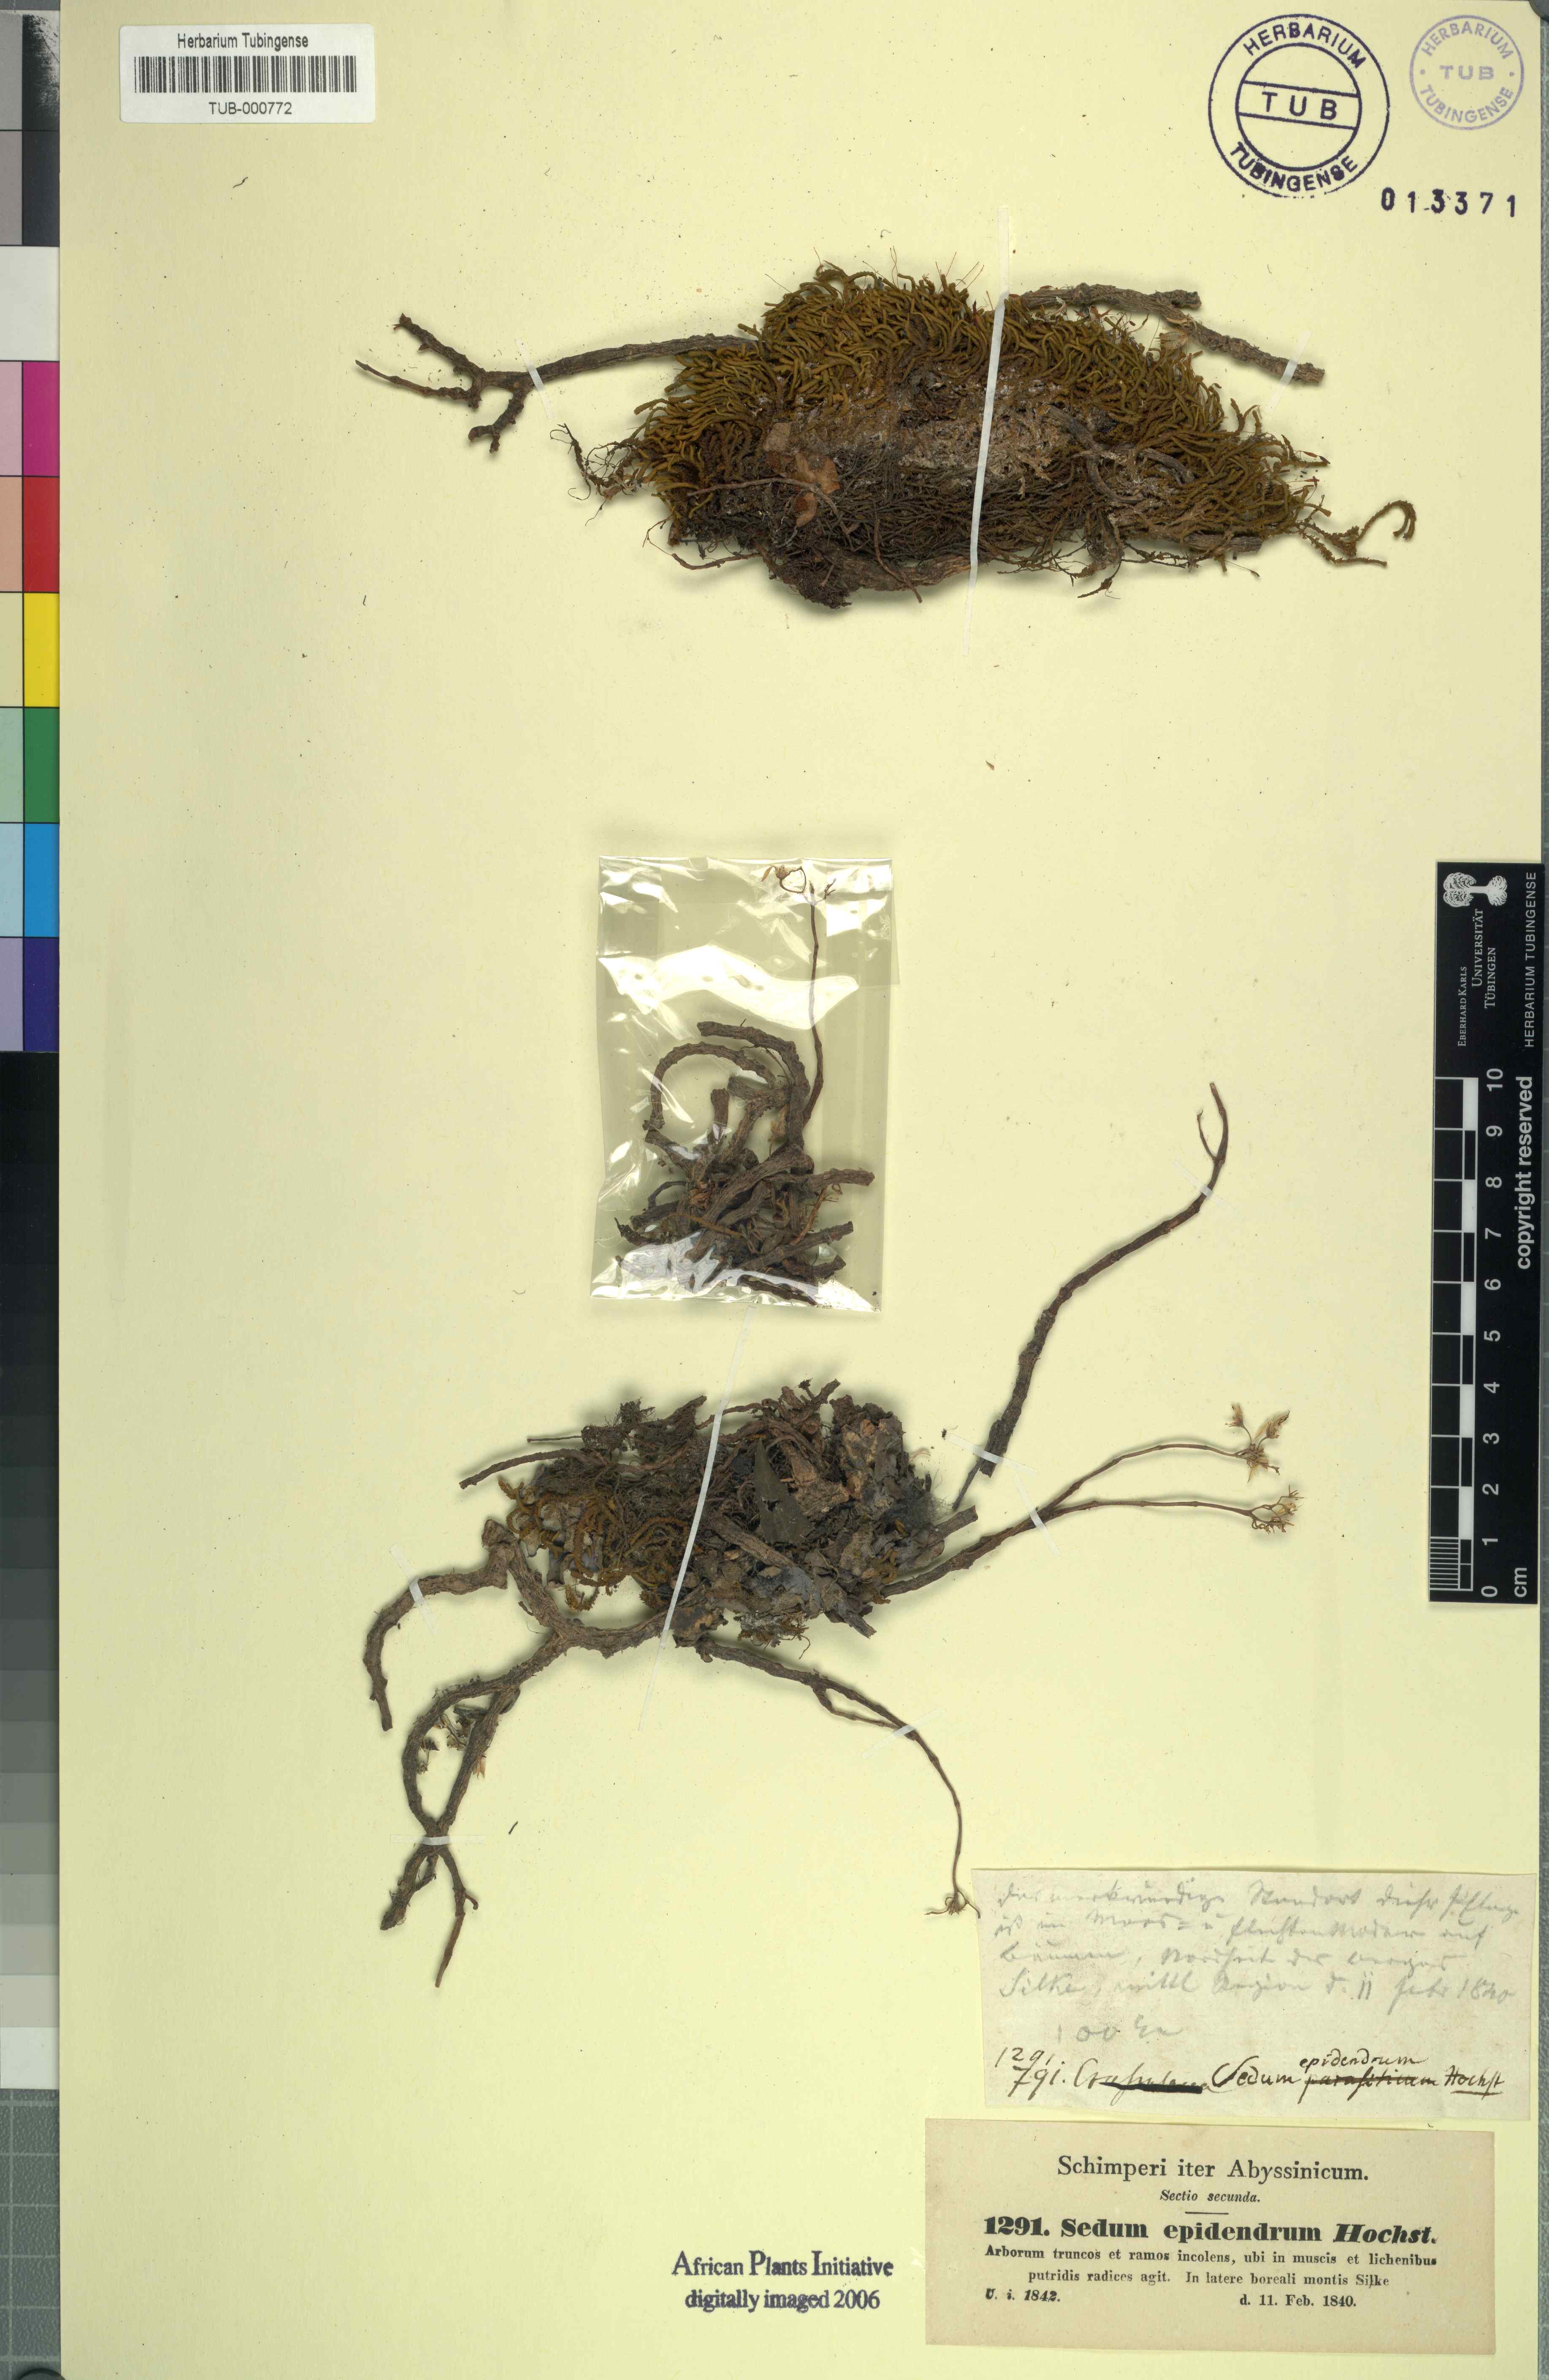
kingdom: Plantae
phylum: Tracheophyta
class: Magnoliopsida
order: Saxifragales
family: Crassulaceae
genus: Sedum
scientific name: Sedum epidendrum
